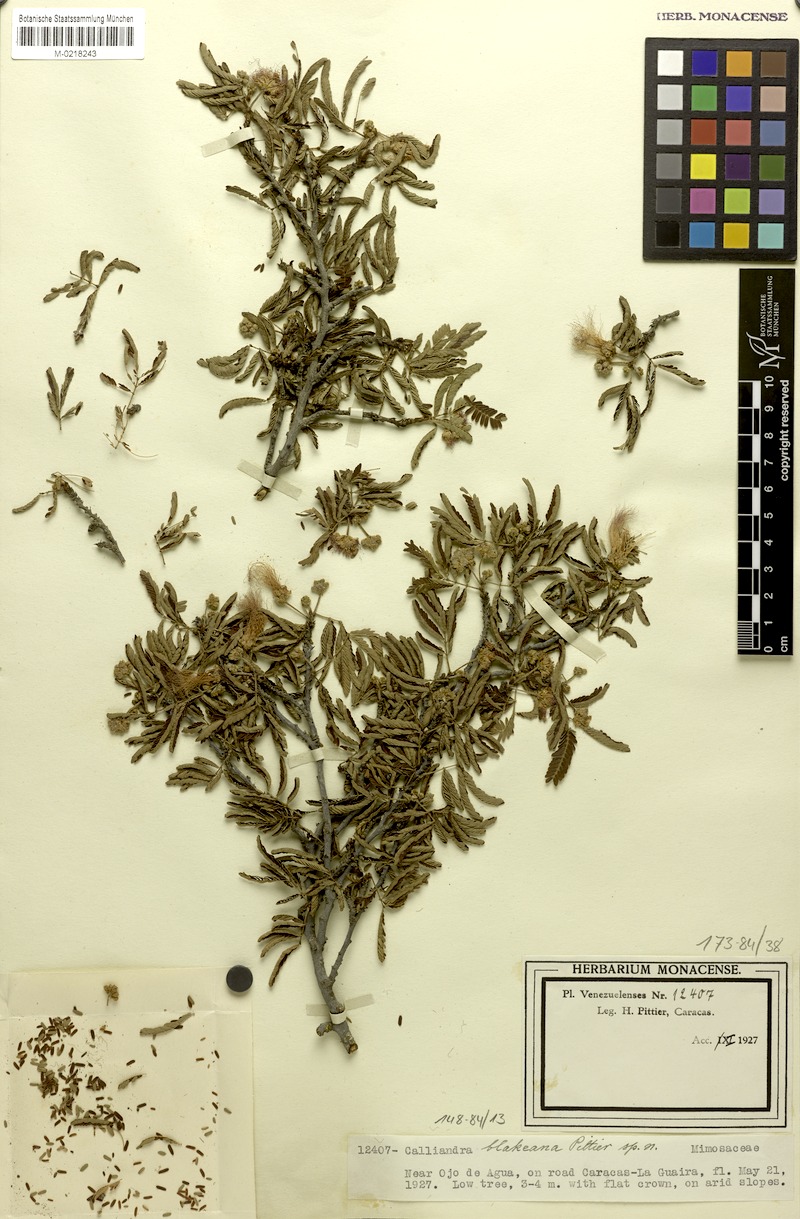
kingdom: Plantae
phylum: Tracheophyta
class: Magnoliopsida
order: Fabales
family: Fabaceae
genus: Calliandra
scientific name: Calliandra glomerulata
